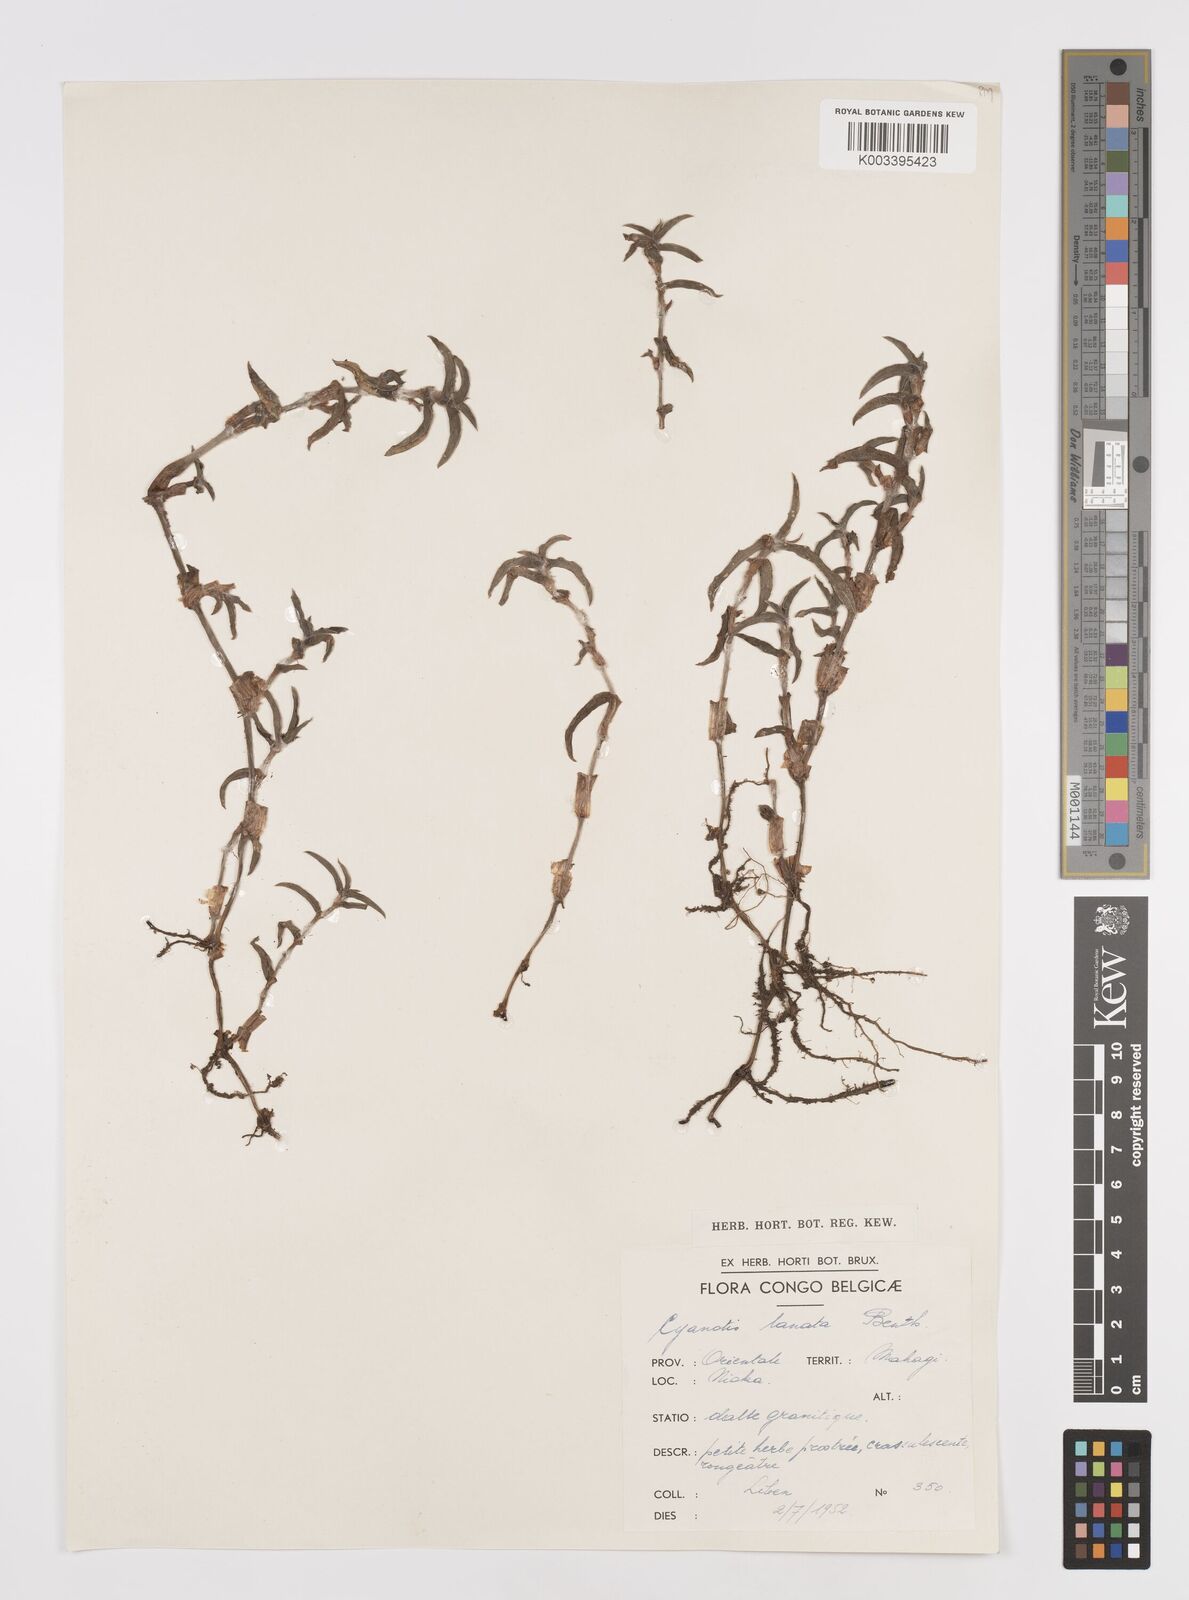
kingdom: Plantae
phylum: Tracheophyta
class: Liliopsida
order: Commelinales
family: Commelinaceae
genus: Cyanotis
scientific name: Cyanotis lanata
